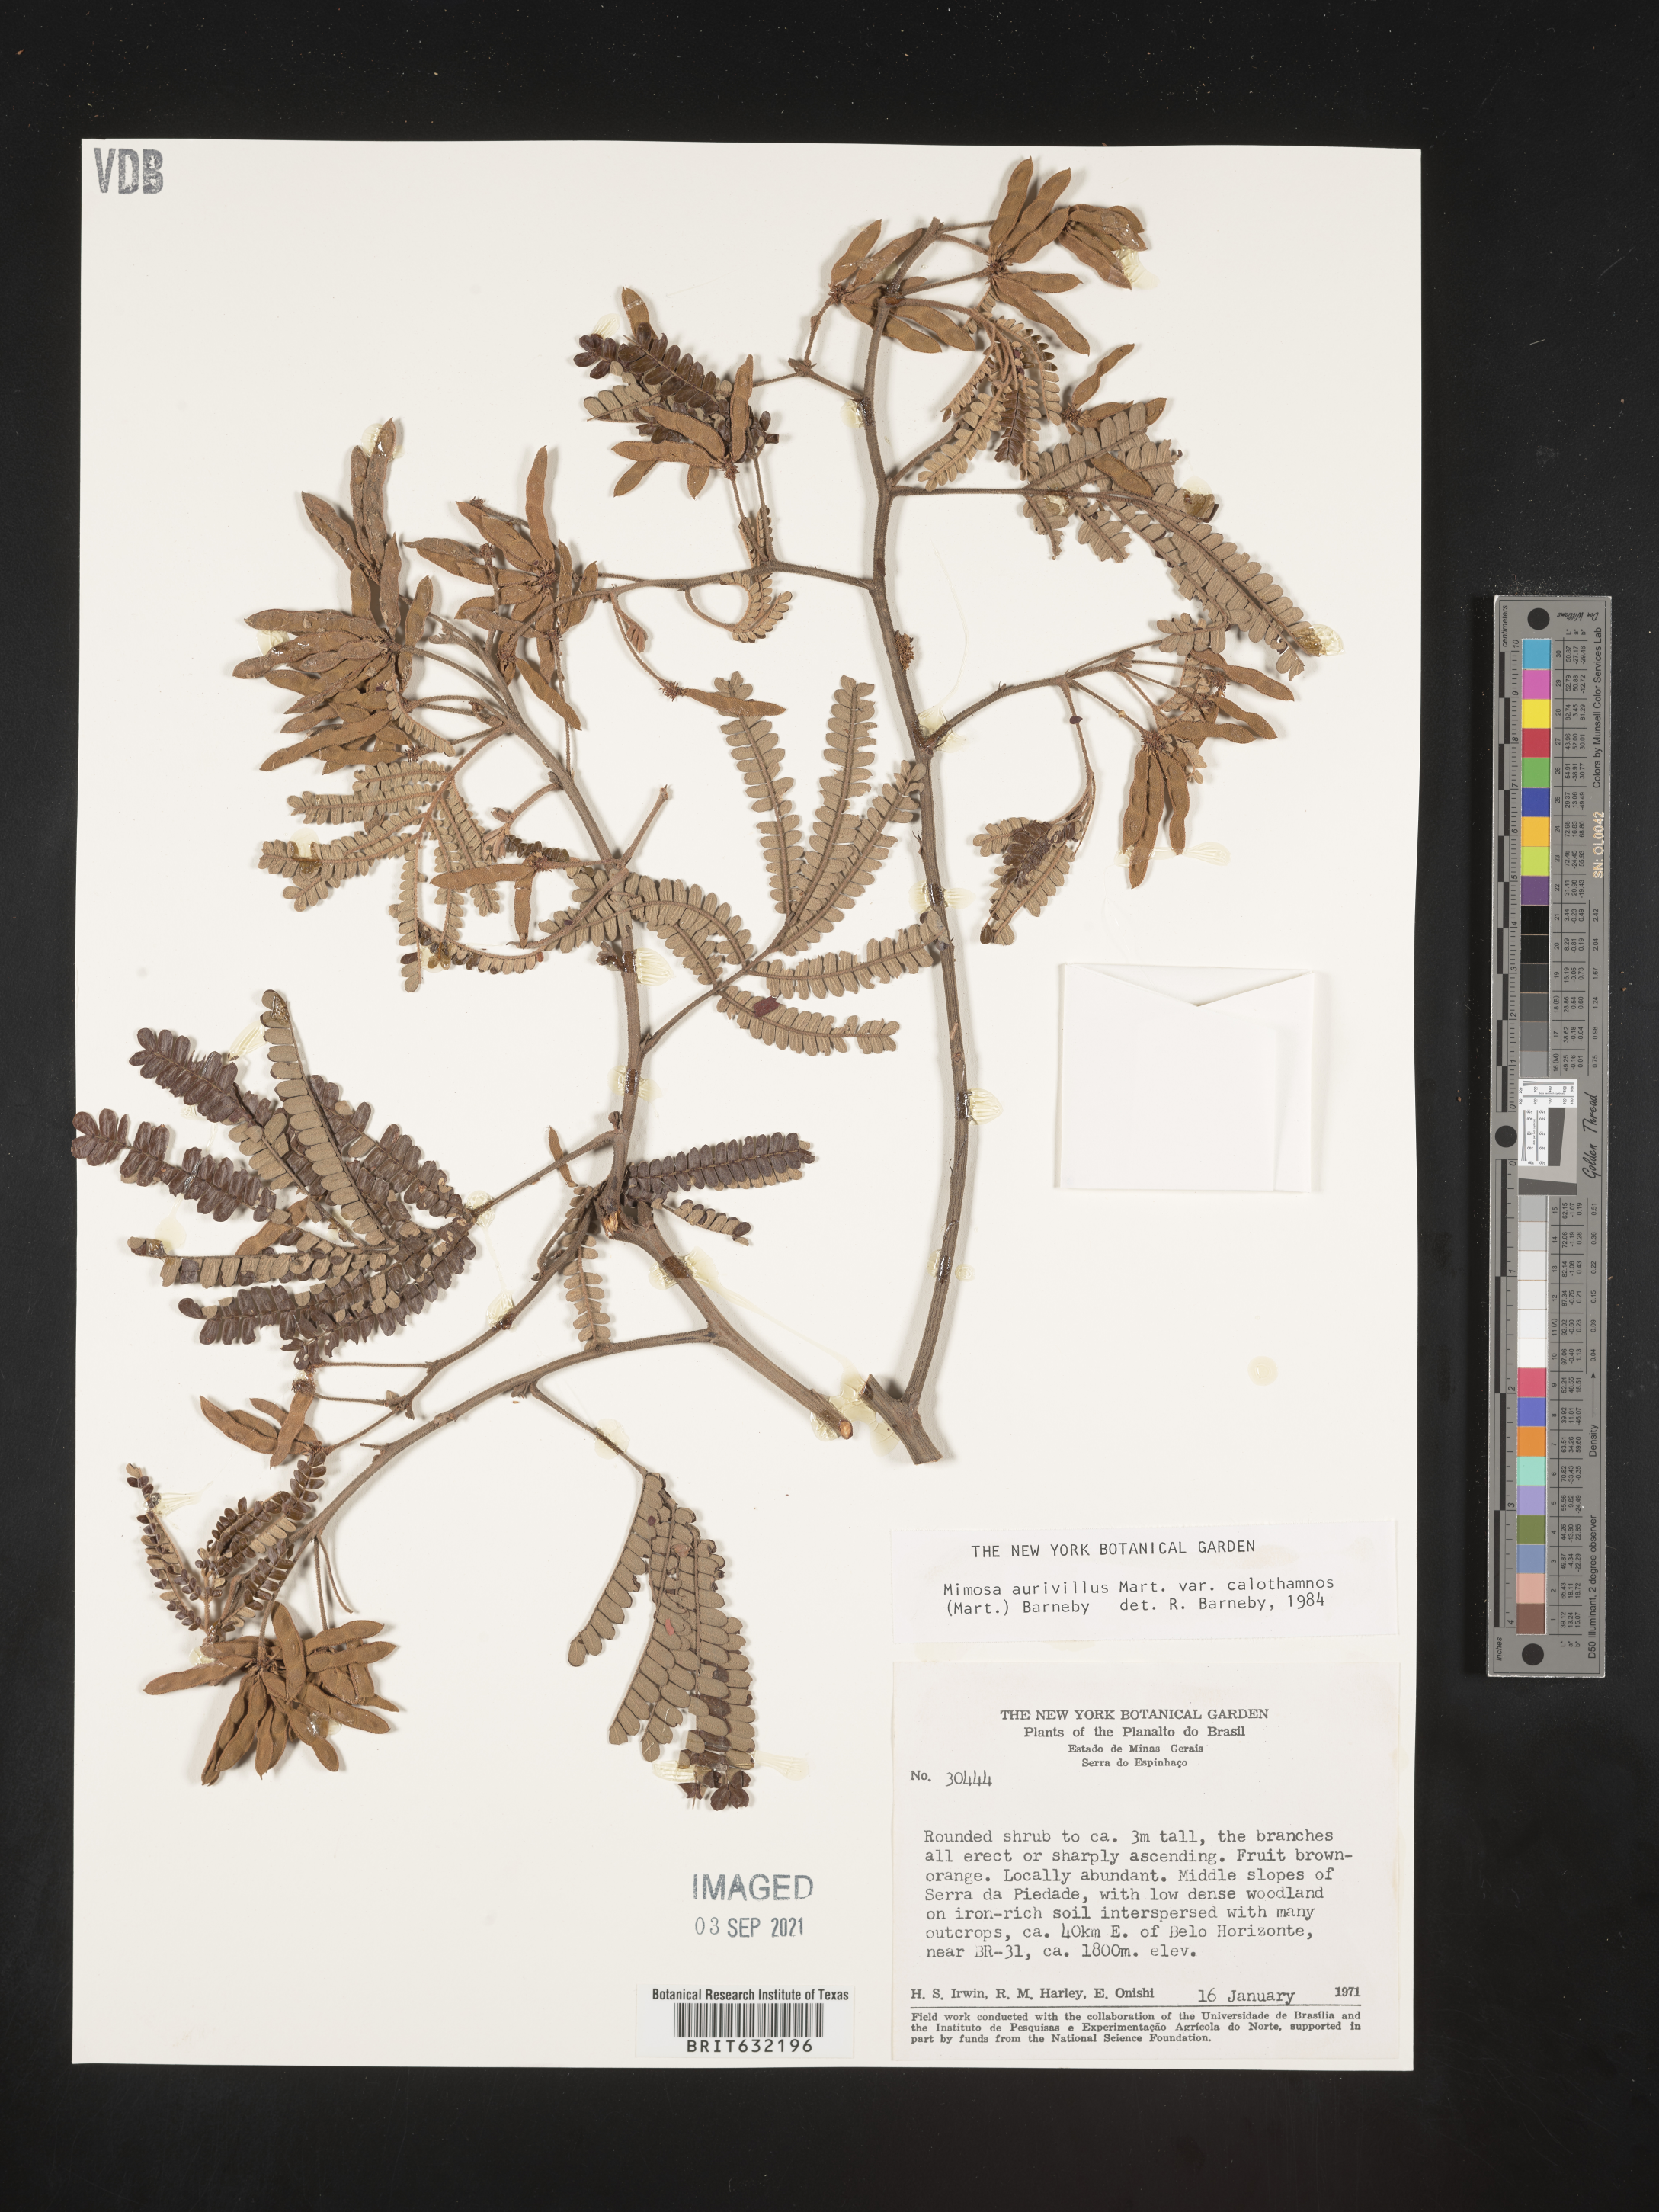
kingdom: Plantae
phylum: Tracheophyta
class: Magnoliopsida
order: Fabales
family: Fabaceae
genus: Mimosa
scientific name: Mimosa
